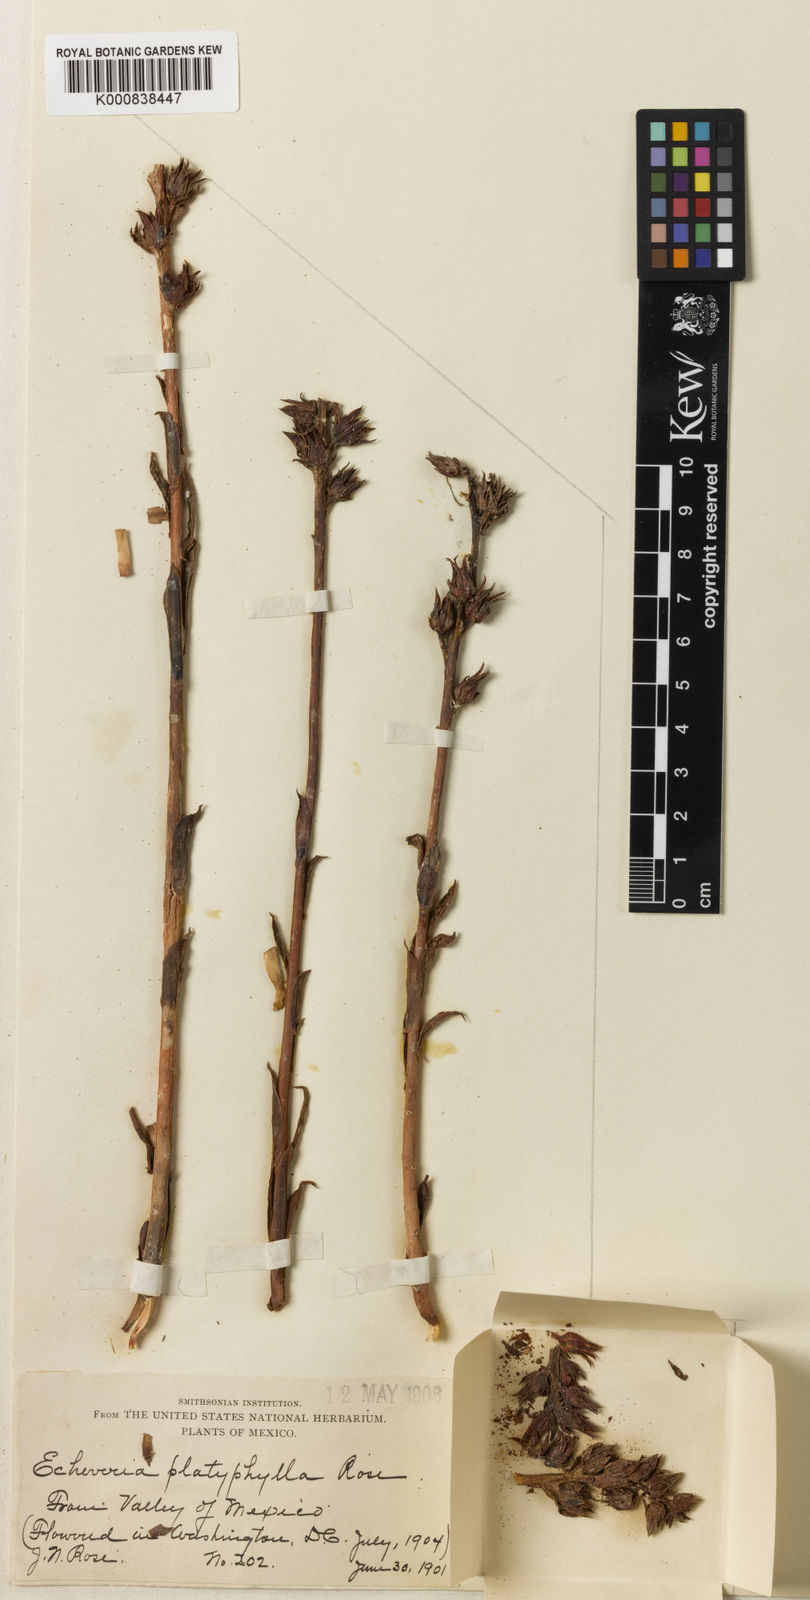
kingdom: Plantae
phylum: Tracheophyta
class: Magnoliopsida
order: Saxifragales
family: Crassulaceae
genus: Echeveria
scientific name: Echeveria platyphylla
